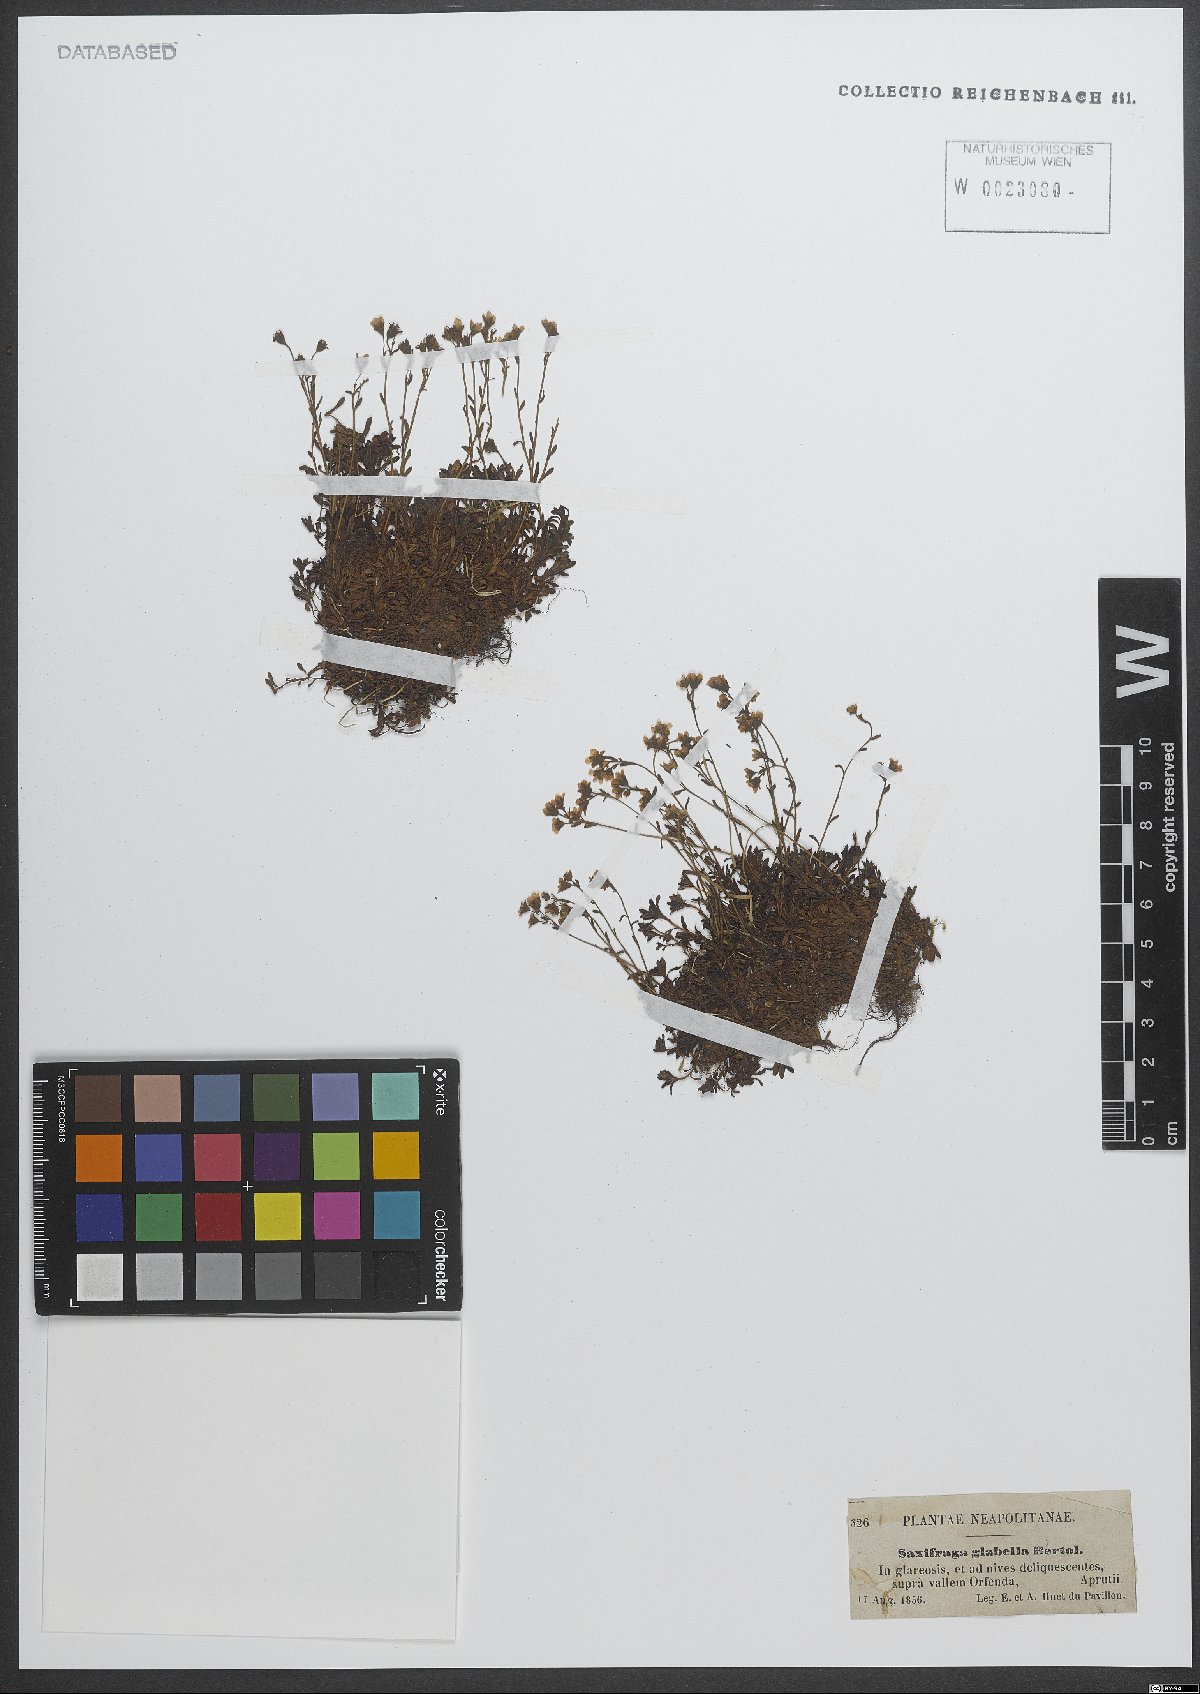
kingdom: Plantae
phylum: Tracheophyta
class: Magnoliopsida
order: Saxifragales
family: Saxifragaceae
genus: Saxifraga
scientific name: Saxifraga glabella
